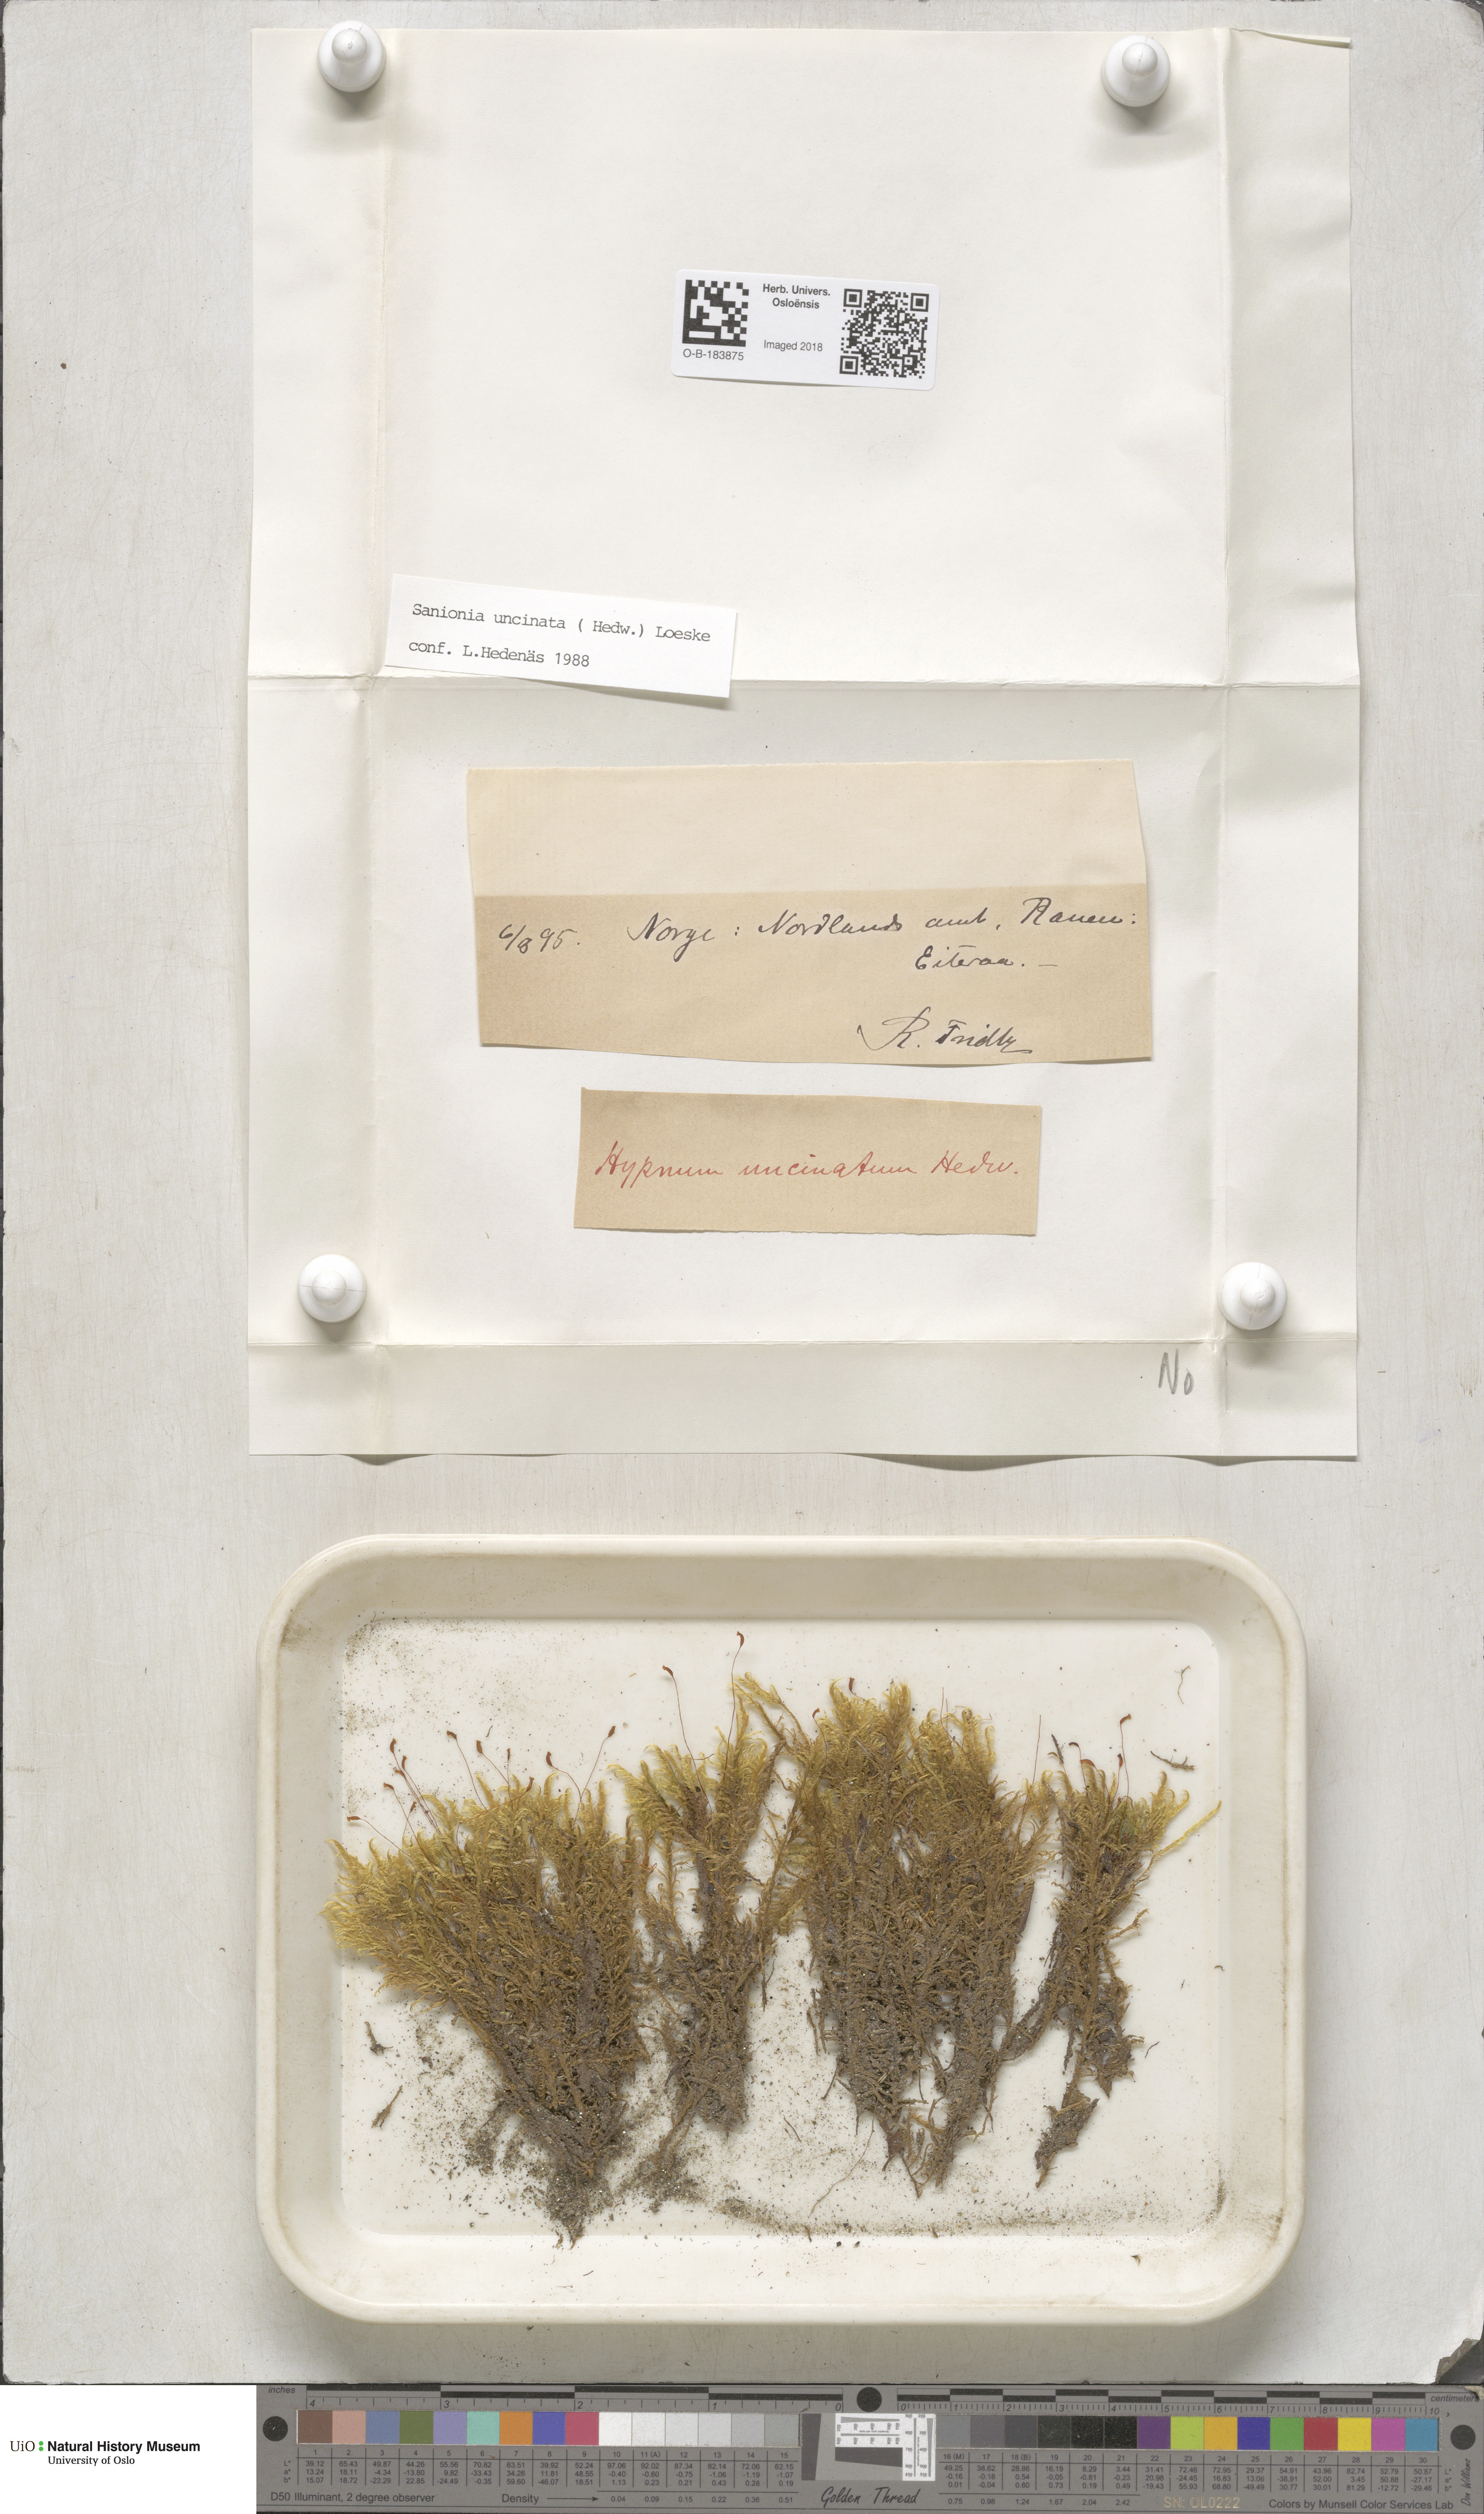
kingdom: Plantae
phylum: Bryophyta
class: Bryopsida
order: Hypnales
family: Scorpidiaceae
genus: Sanionia
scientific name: Sanionia uncinata
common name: Sickle moss
